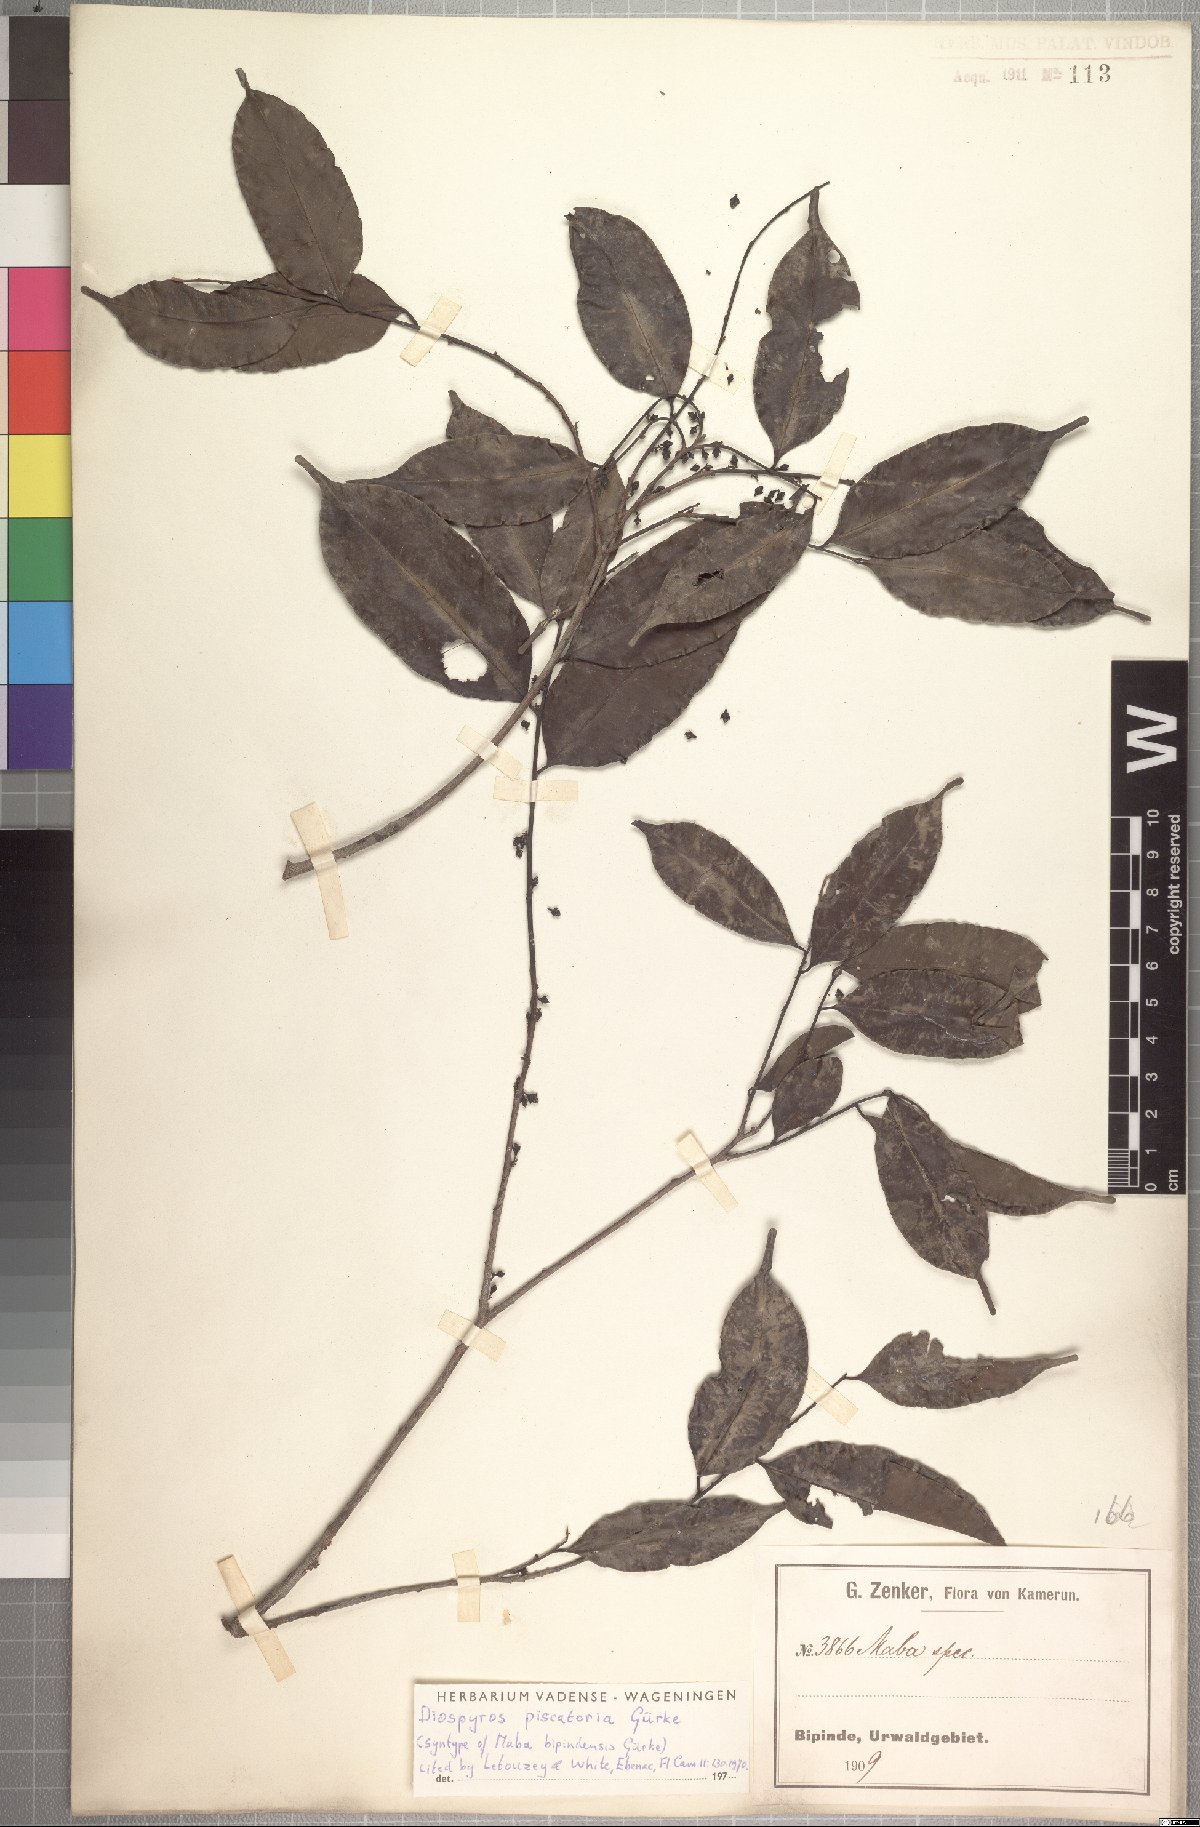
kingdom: Plantae
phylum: Tracheophyta
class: Magnoliopsida
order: Ericales
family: Ebenaceae
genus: Diospyros
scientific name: Diospyros piscatoria
